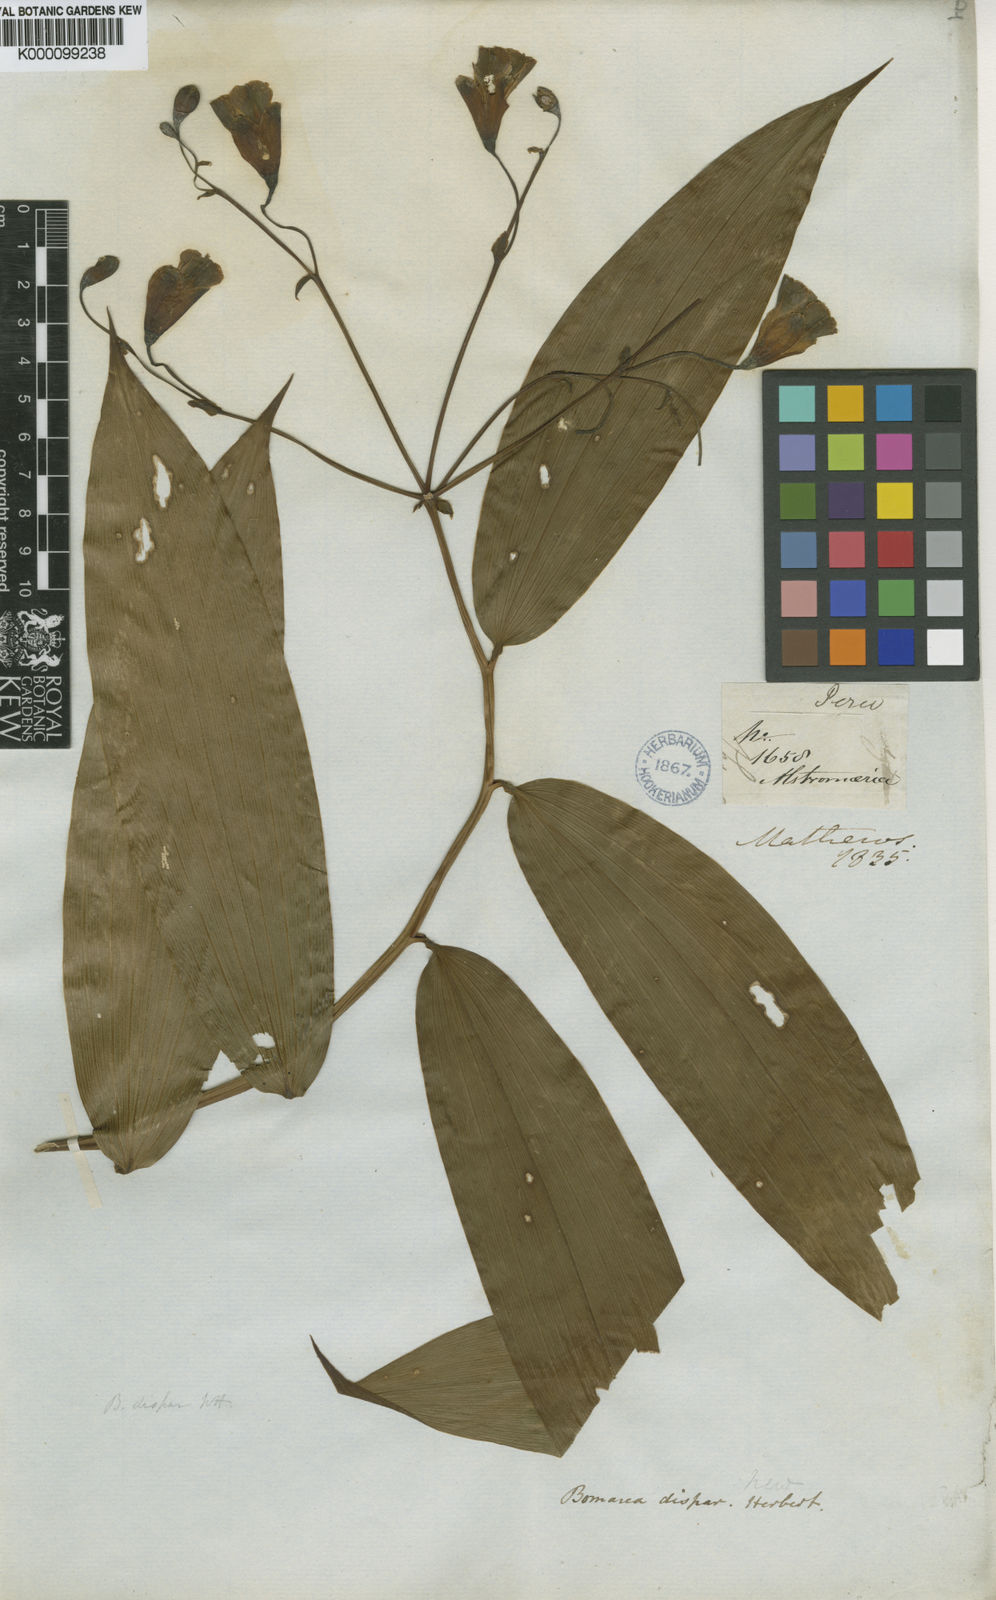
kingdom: Plantae
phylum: Tracheophyta
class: Liliopsida
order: Liliales
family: Alstroemeriaceae
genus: Bomarea
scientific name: Bomarea dispar
